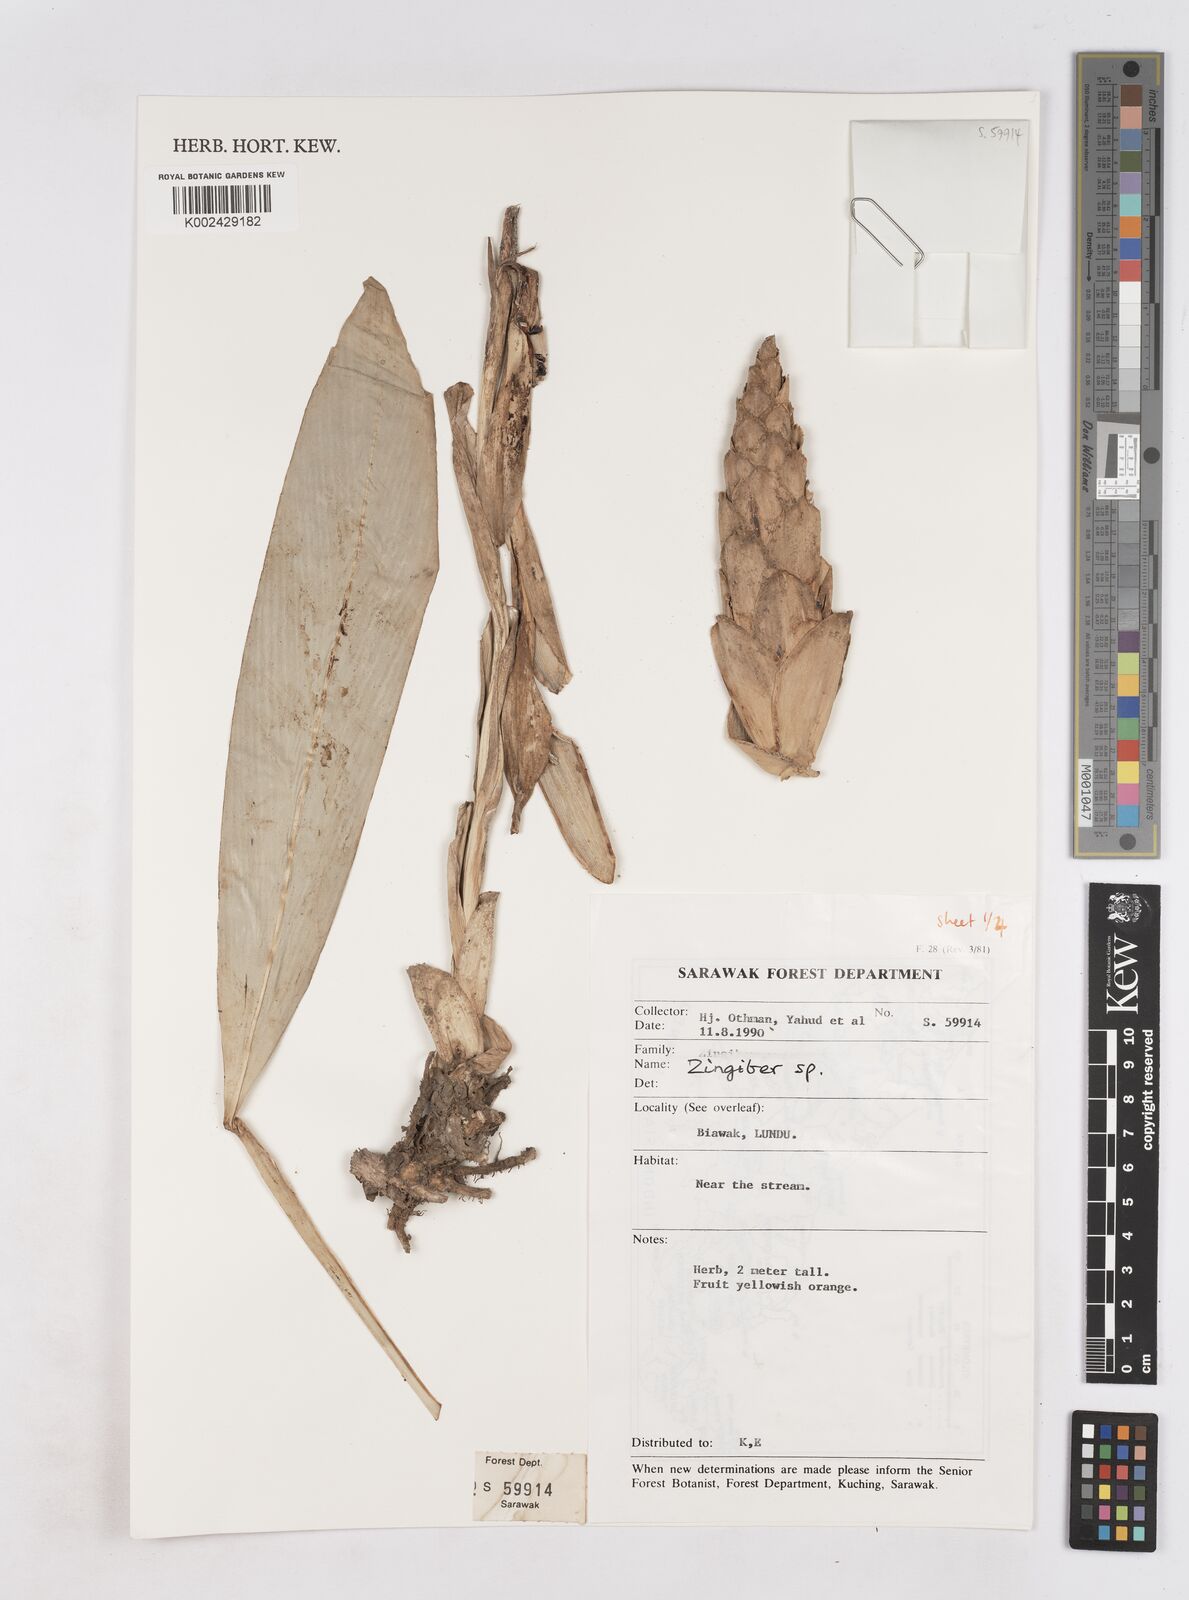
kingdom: Plantae
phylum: Tracheophyta
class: Liliopsida
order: Zingiberales
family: Zingiberaceae
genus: Zingiber
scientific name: Zingiber
